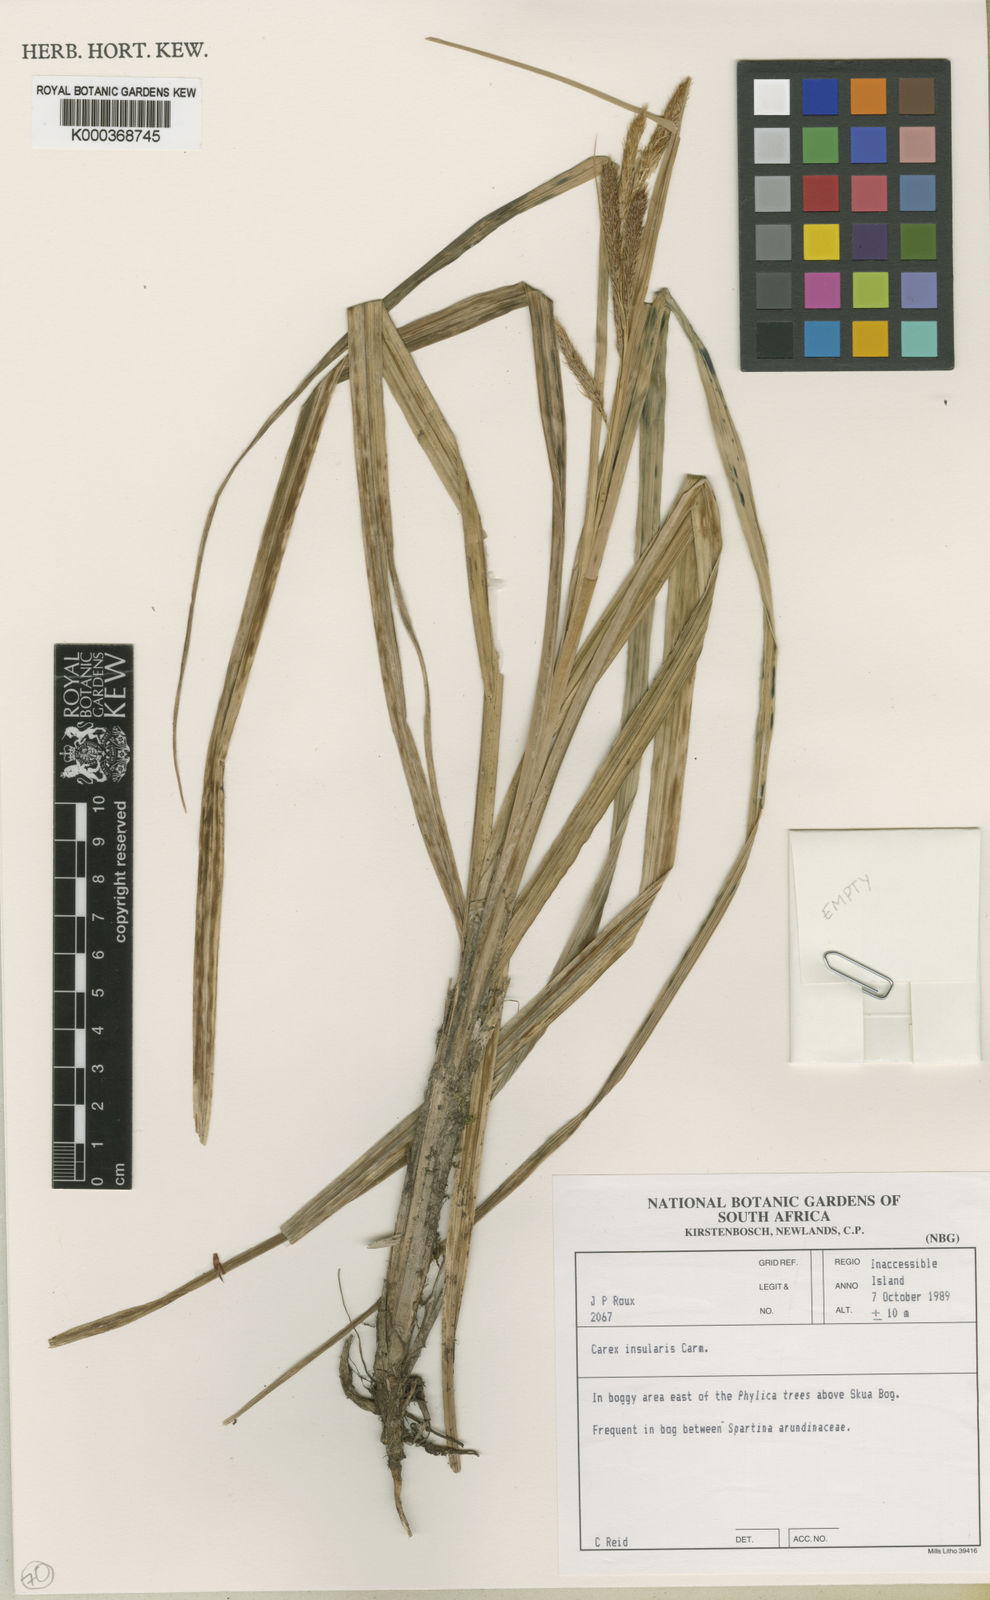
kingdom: Plantae
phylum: Tracheophyta
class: Liliopsida
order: Poales
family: Cyperaceae
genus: Carex
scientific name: Carex insularis
